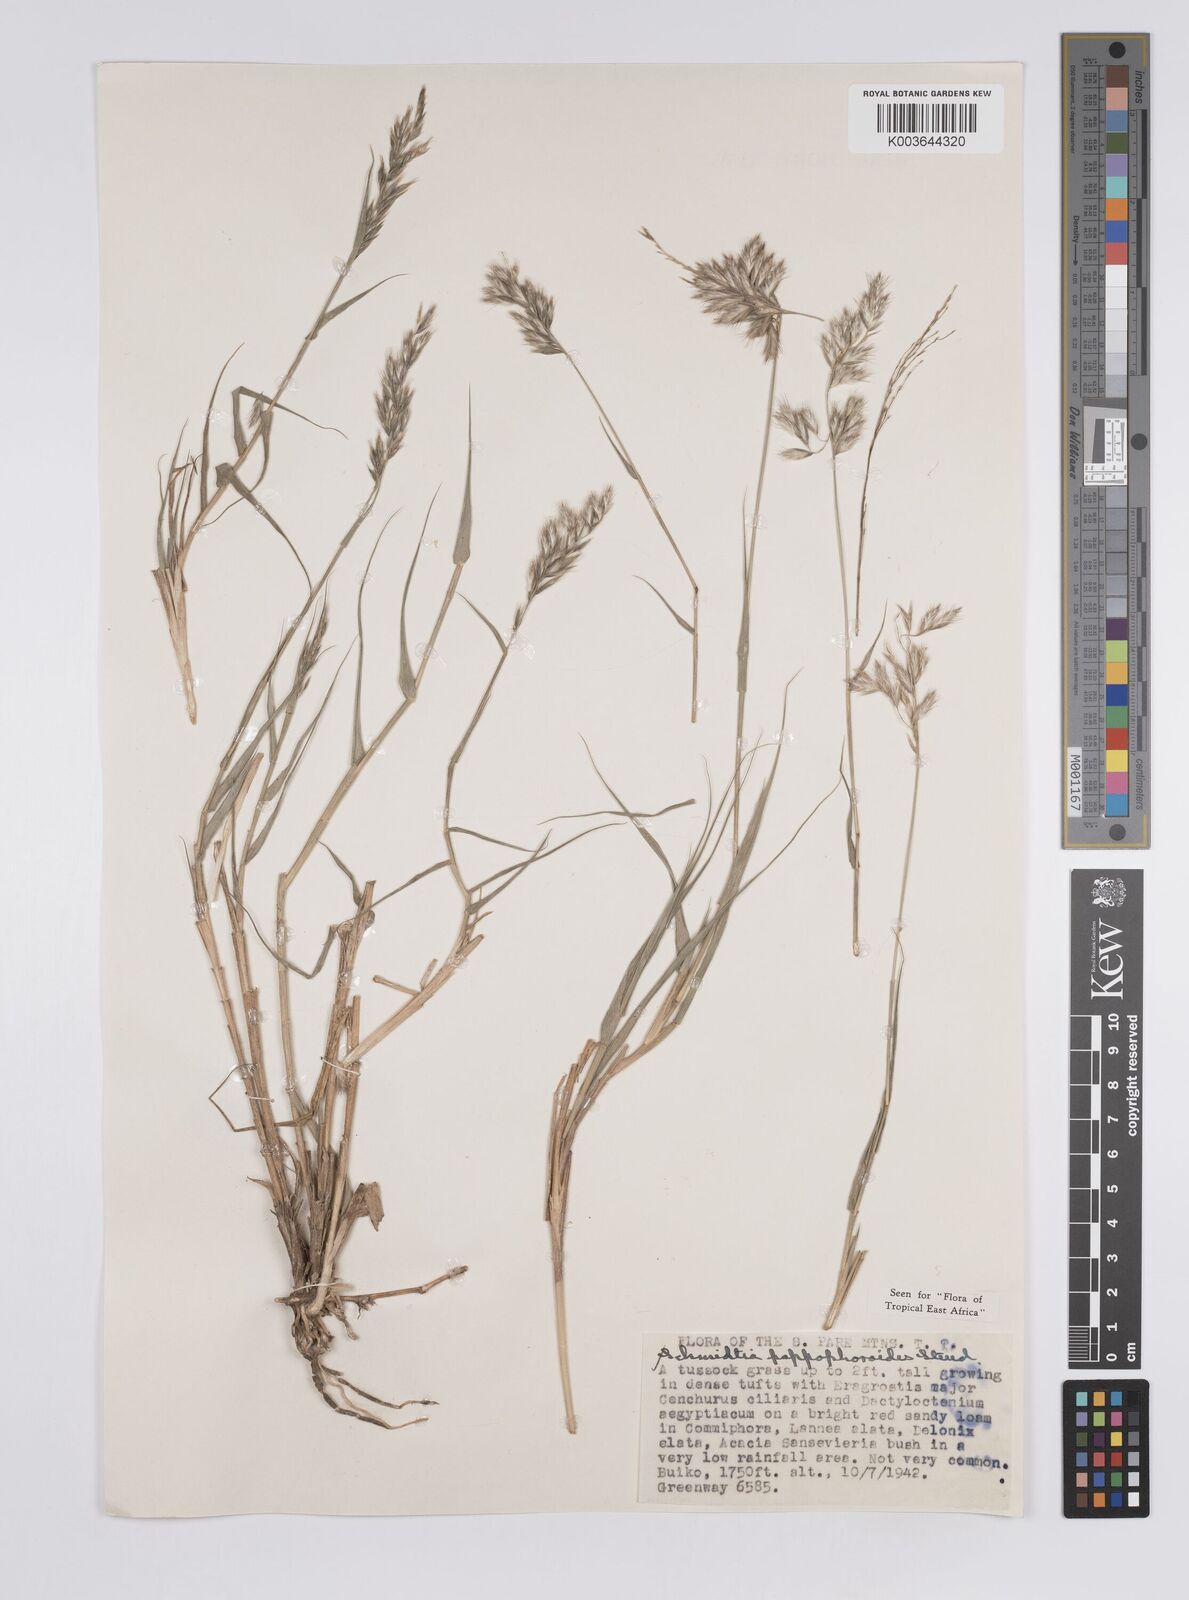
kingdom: Plantae
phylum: Tracheophyta
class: Liliopsida
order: Poales
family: Poaceae
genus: Schmidtia
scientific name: Schmidtia pappophoroides
